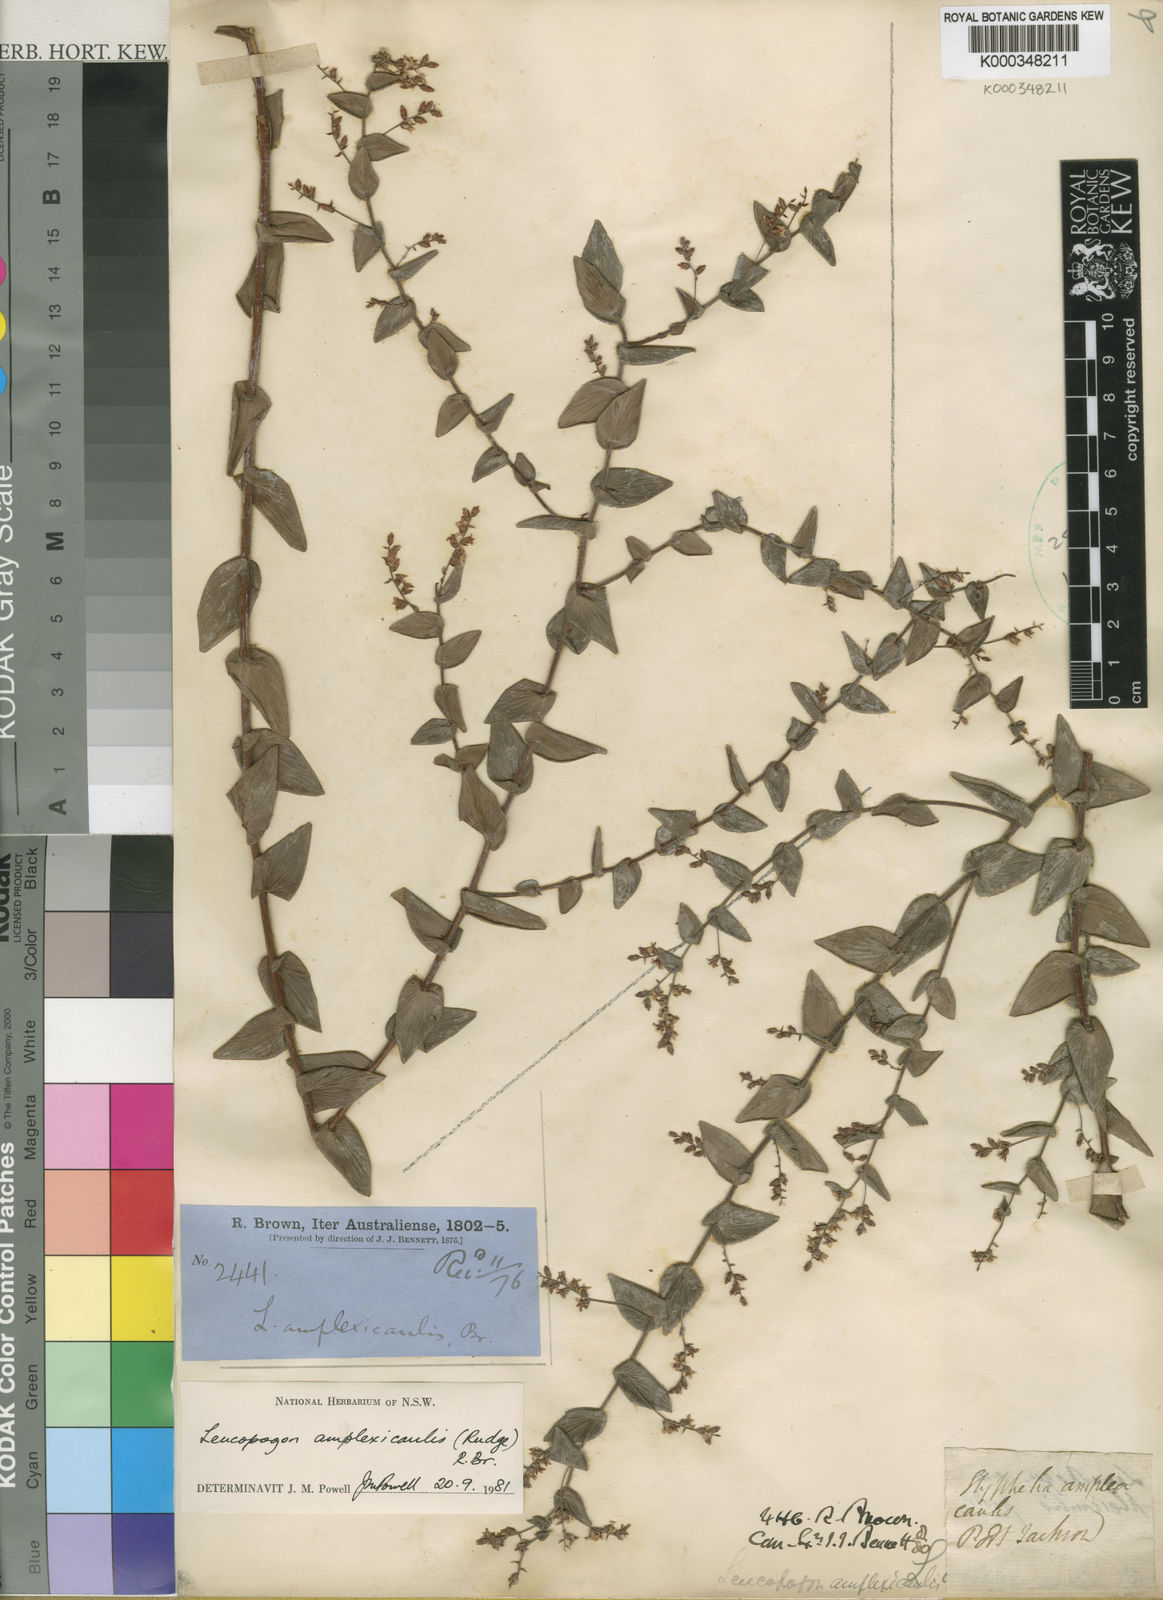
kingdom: Plantae
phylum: Tracheophyta
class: Magnoliopsida
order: Ericales
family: Ericaceae
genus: Leucopogon
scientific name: Leucopogon amplexicaulis
